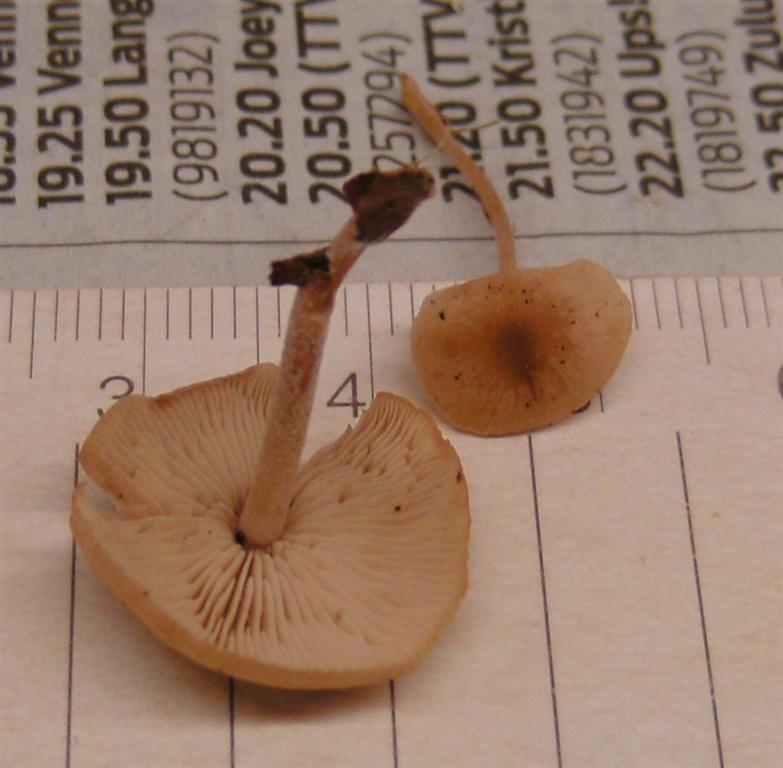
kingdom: Fungi
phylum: Basidiomycota
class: Agaricomycetes
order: Agaricales
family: Marasmiaceae
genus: Baeospora
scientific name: Baeospora myosura
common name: koglebruskhat
